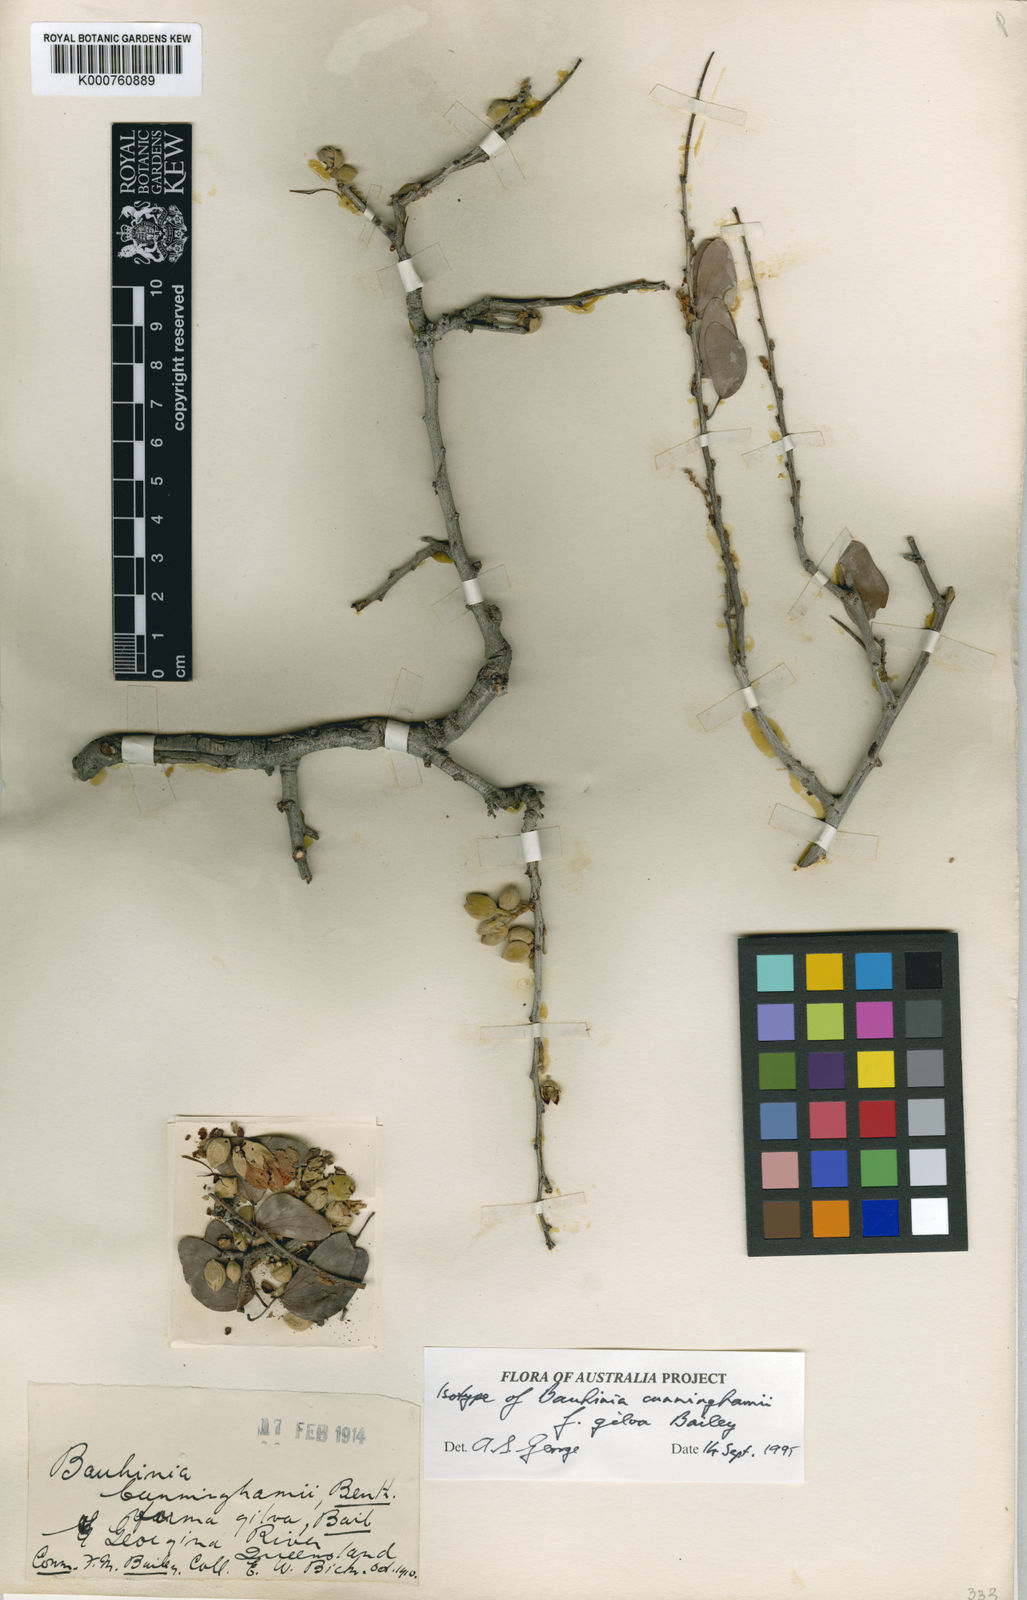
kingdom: Plantae
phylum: Tracheophyta
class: Magnoliopsida
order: Fabales
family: Fabaceae
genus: Lysiphyllum
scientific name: Lysiphyllum gilvum
